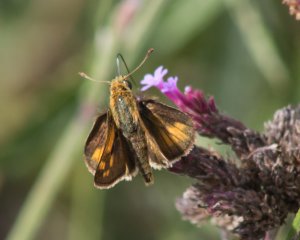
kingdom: Animalia
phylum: Arthropoda
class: Insecta
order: Lepidoptera
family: Hesperiidae
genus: Polites
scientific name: Polites coras
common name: Peck's Skipper
